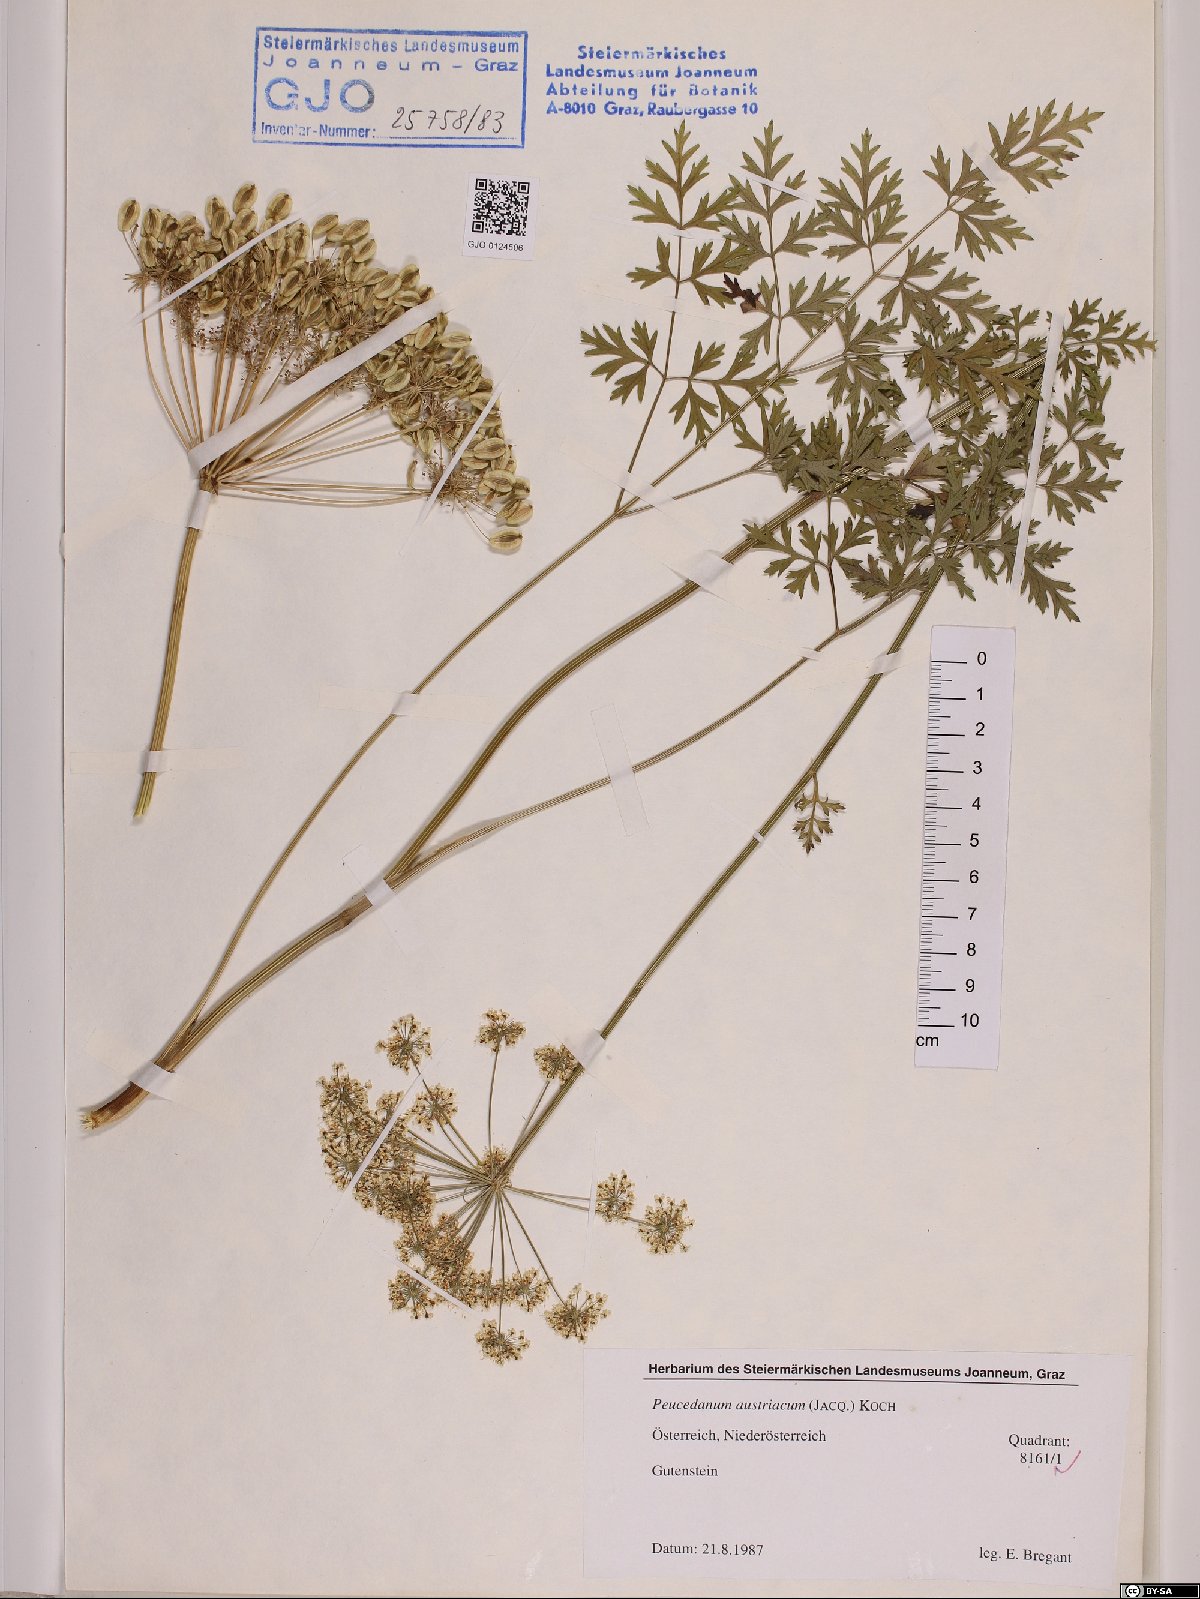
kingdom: Plantae
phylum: Tracheophyta
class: Magnoliopsida
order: Apiales
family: Apiaceae
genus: Peucedanum
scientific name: Peucedanum austriacum
